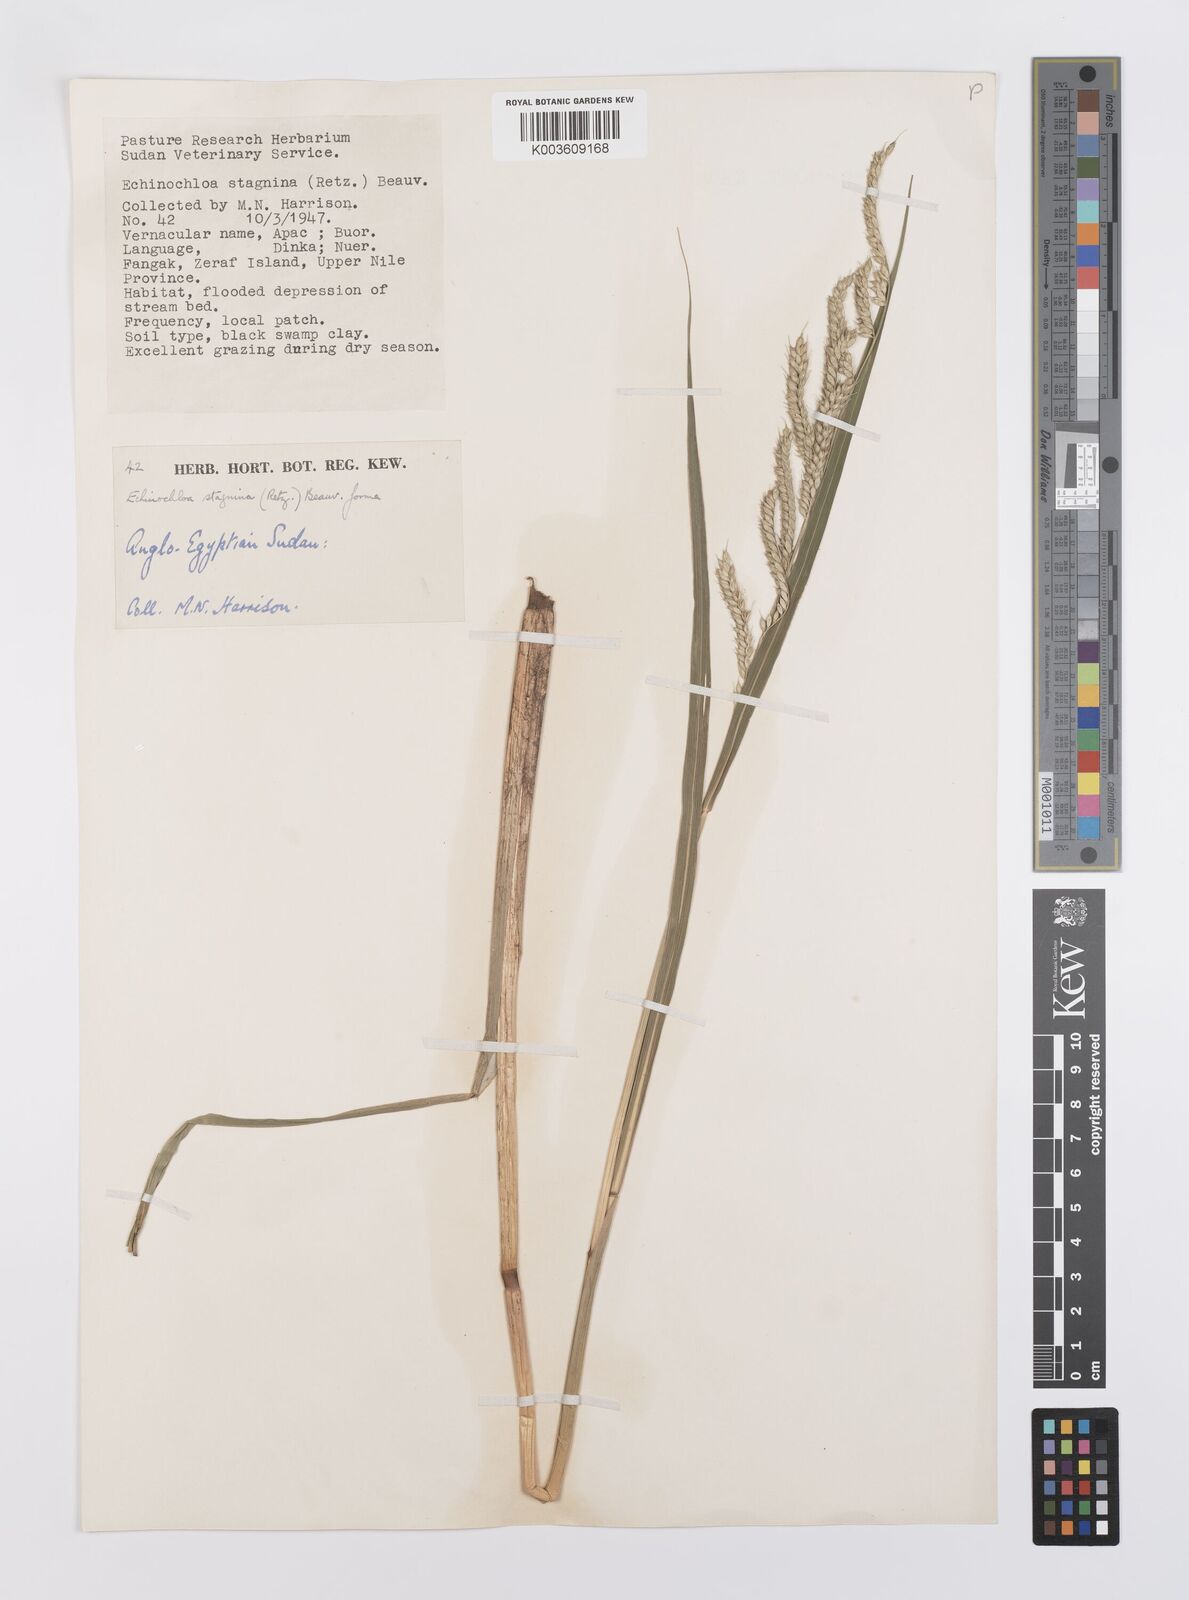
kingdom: Plantae
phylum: Tracheophyta
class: Liliopsida
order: Poales
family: Poaceae
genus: Echinochloa
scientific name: Echinochloa stagnina
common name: Burgu grass
